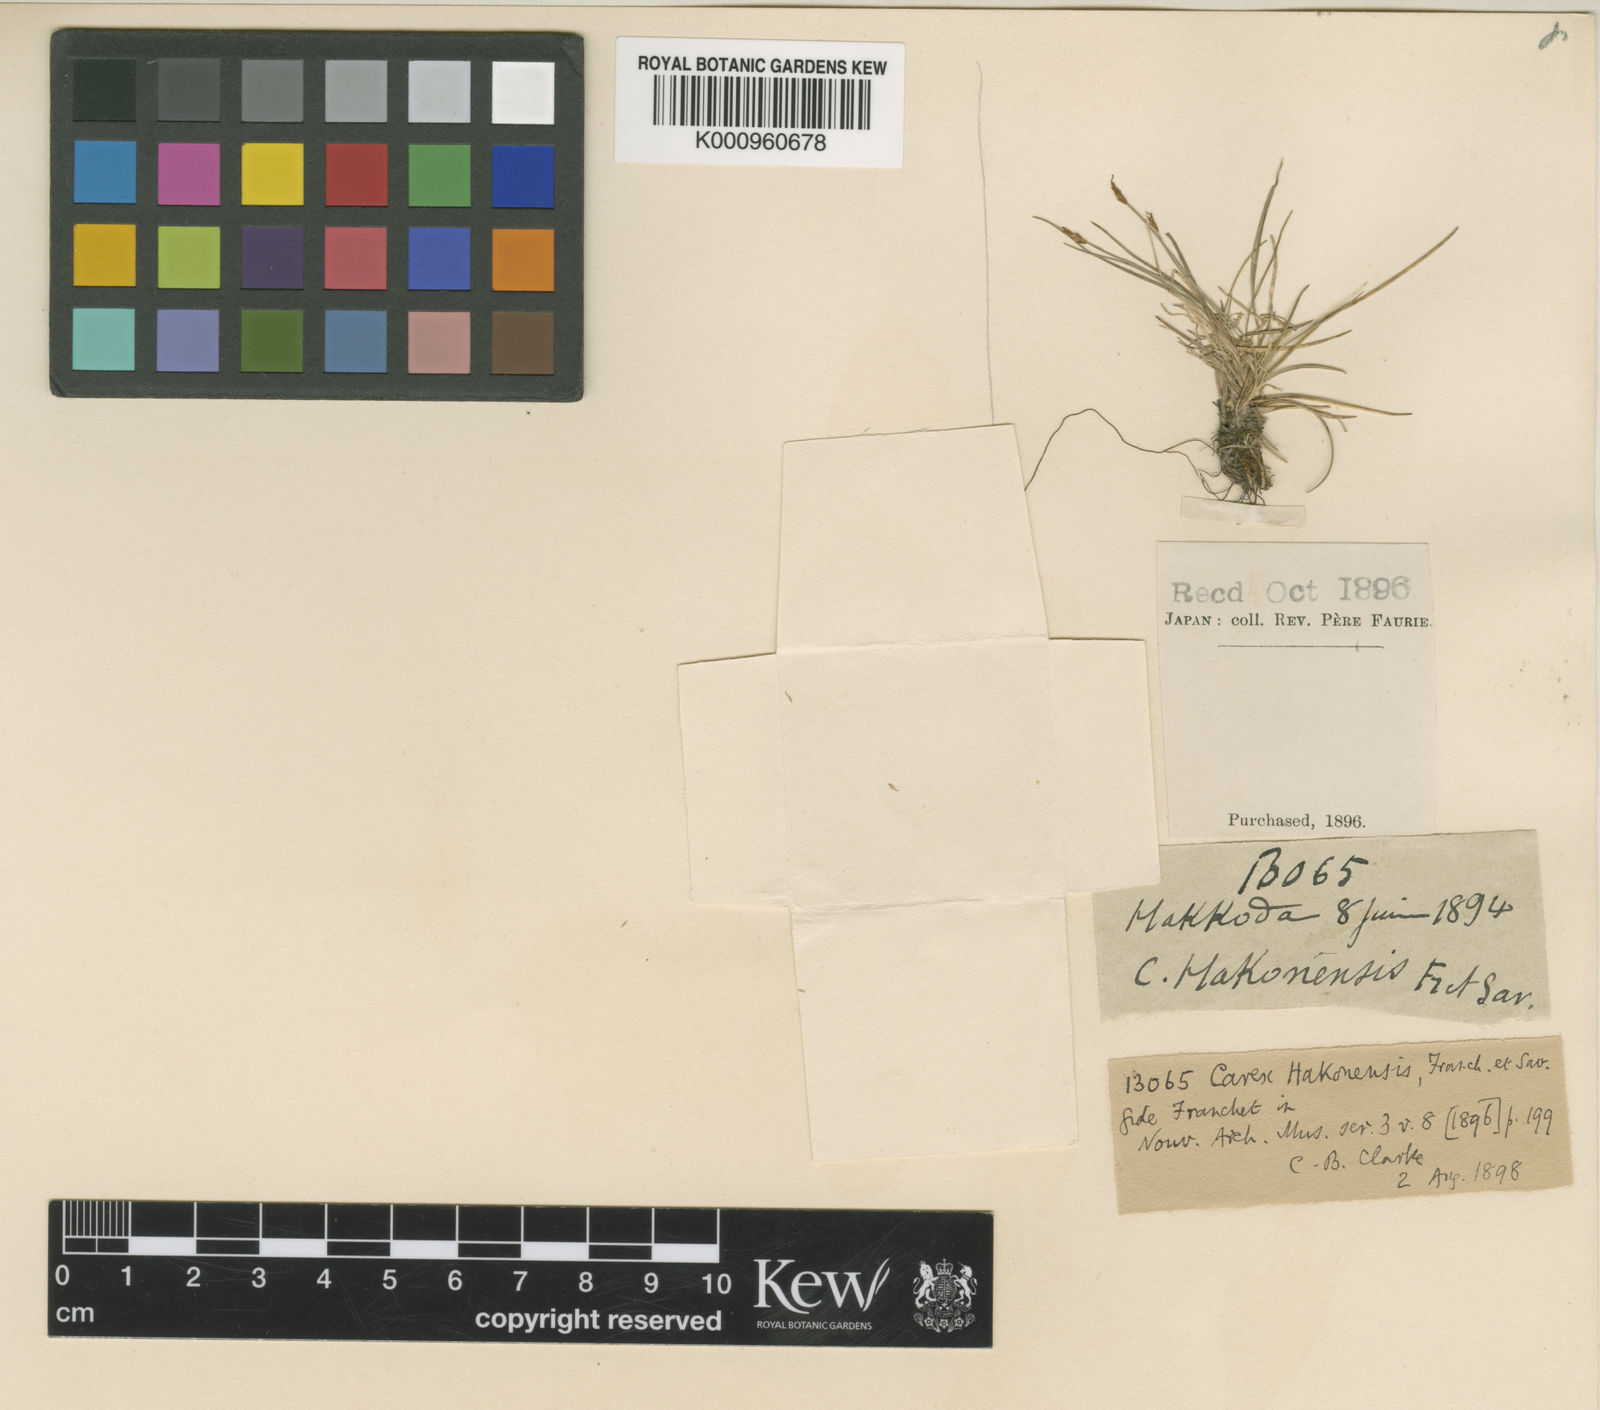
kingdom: Plantae
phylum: Tracheophyta
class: Liliopsida
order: Poales
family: Cyperaceae
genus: Carex
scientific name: Carex onoei
